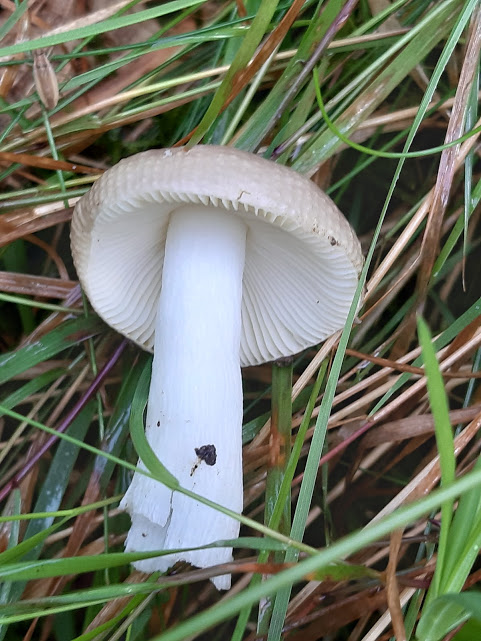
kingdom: Fungi
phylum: Basidiomycota
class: Agaricomycetes
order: Russulales
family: Russulaceae
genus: Russula
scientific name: Russula
